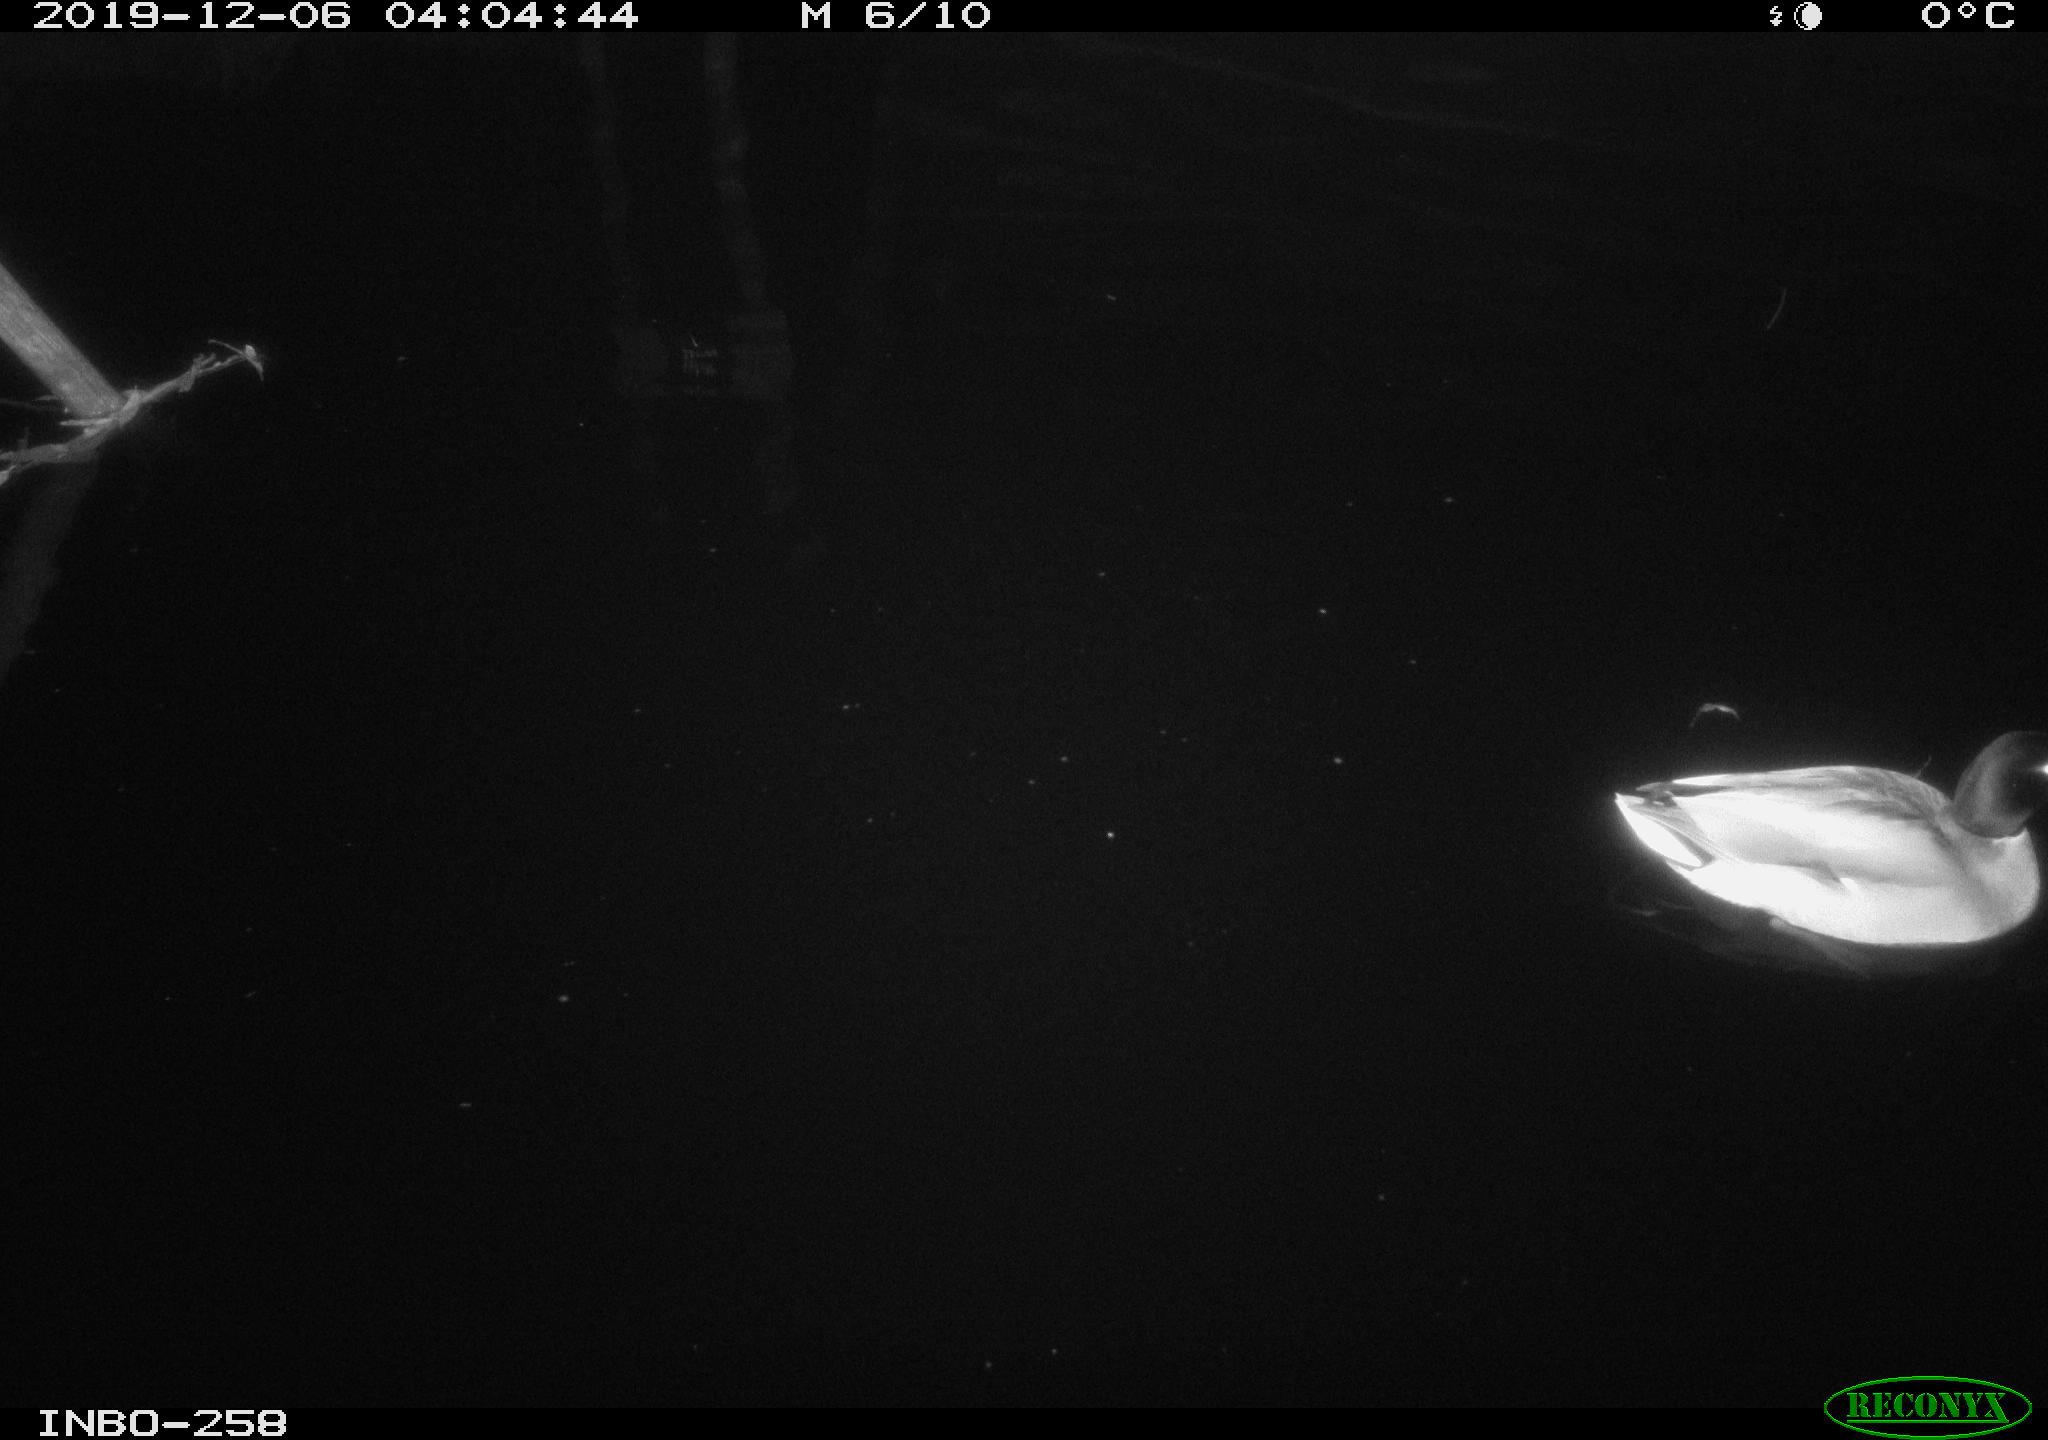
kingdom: Animalia
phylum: Chordata
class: Aves
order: Anseriformes
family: Anatidae
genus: Anas
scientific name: Anas platyrhynchos
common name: Mallard
